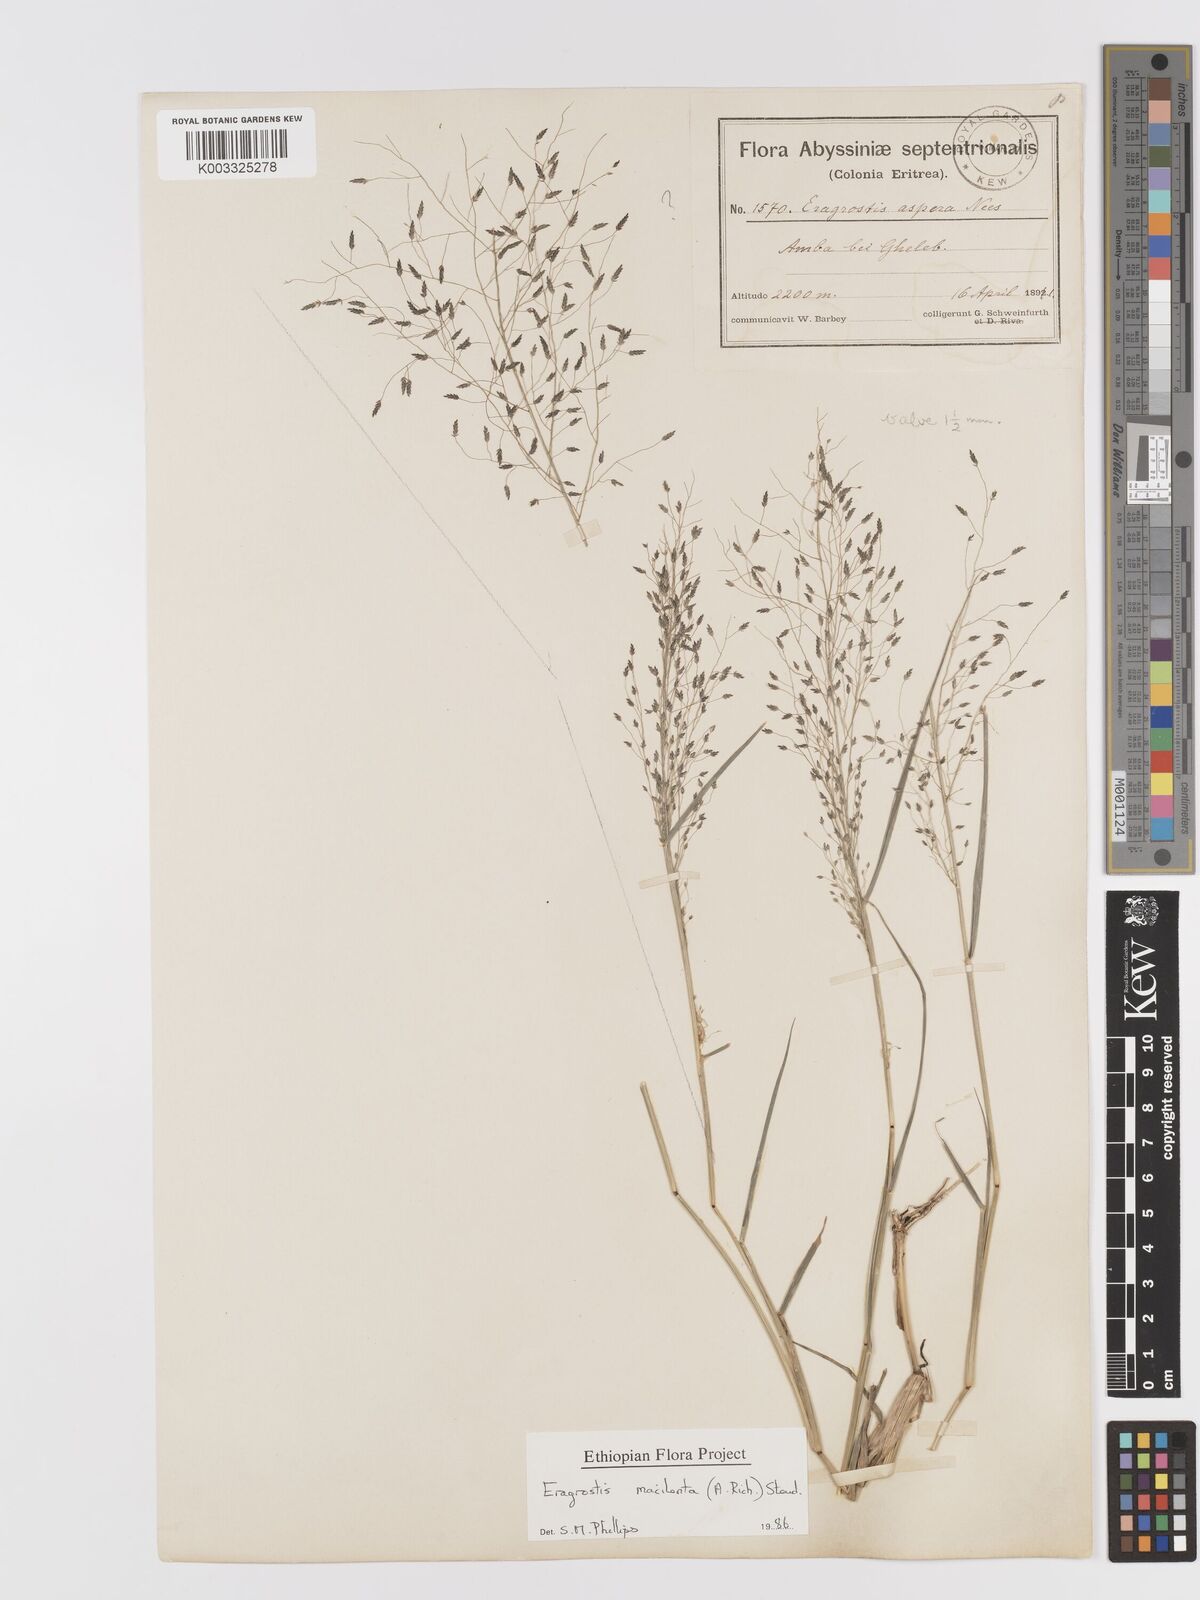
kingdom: Plantae
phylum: Tracheophyta
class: Liliopsida
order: Poales
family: Poaceae
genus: Eragrostis
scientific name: Eragrostis macilenta
